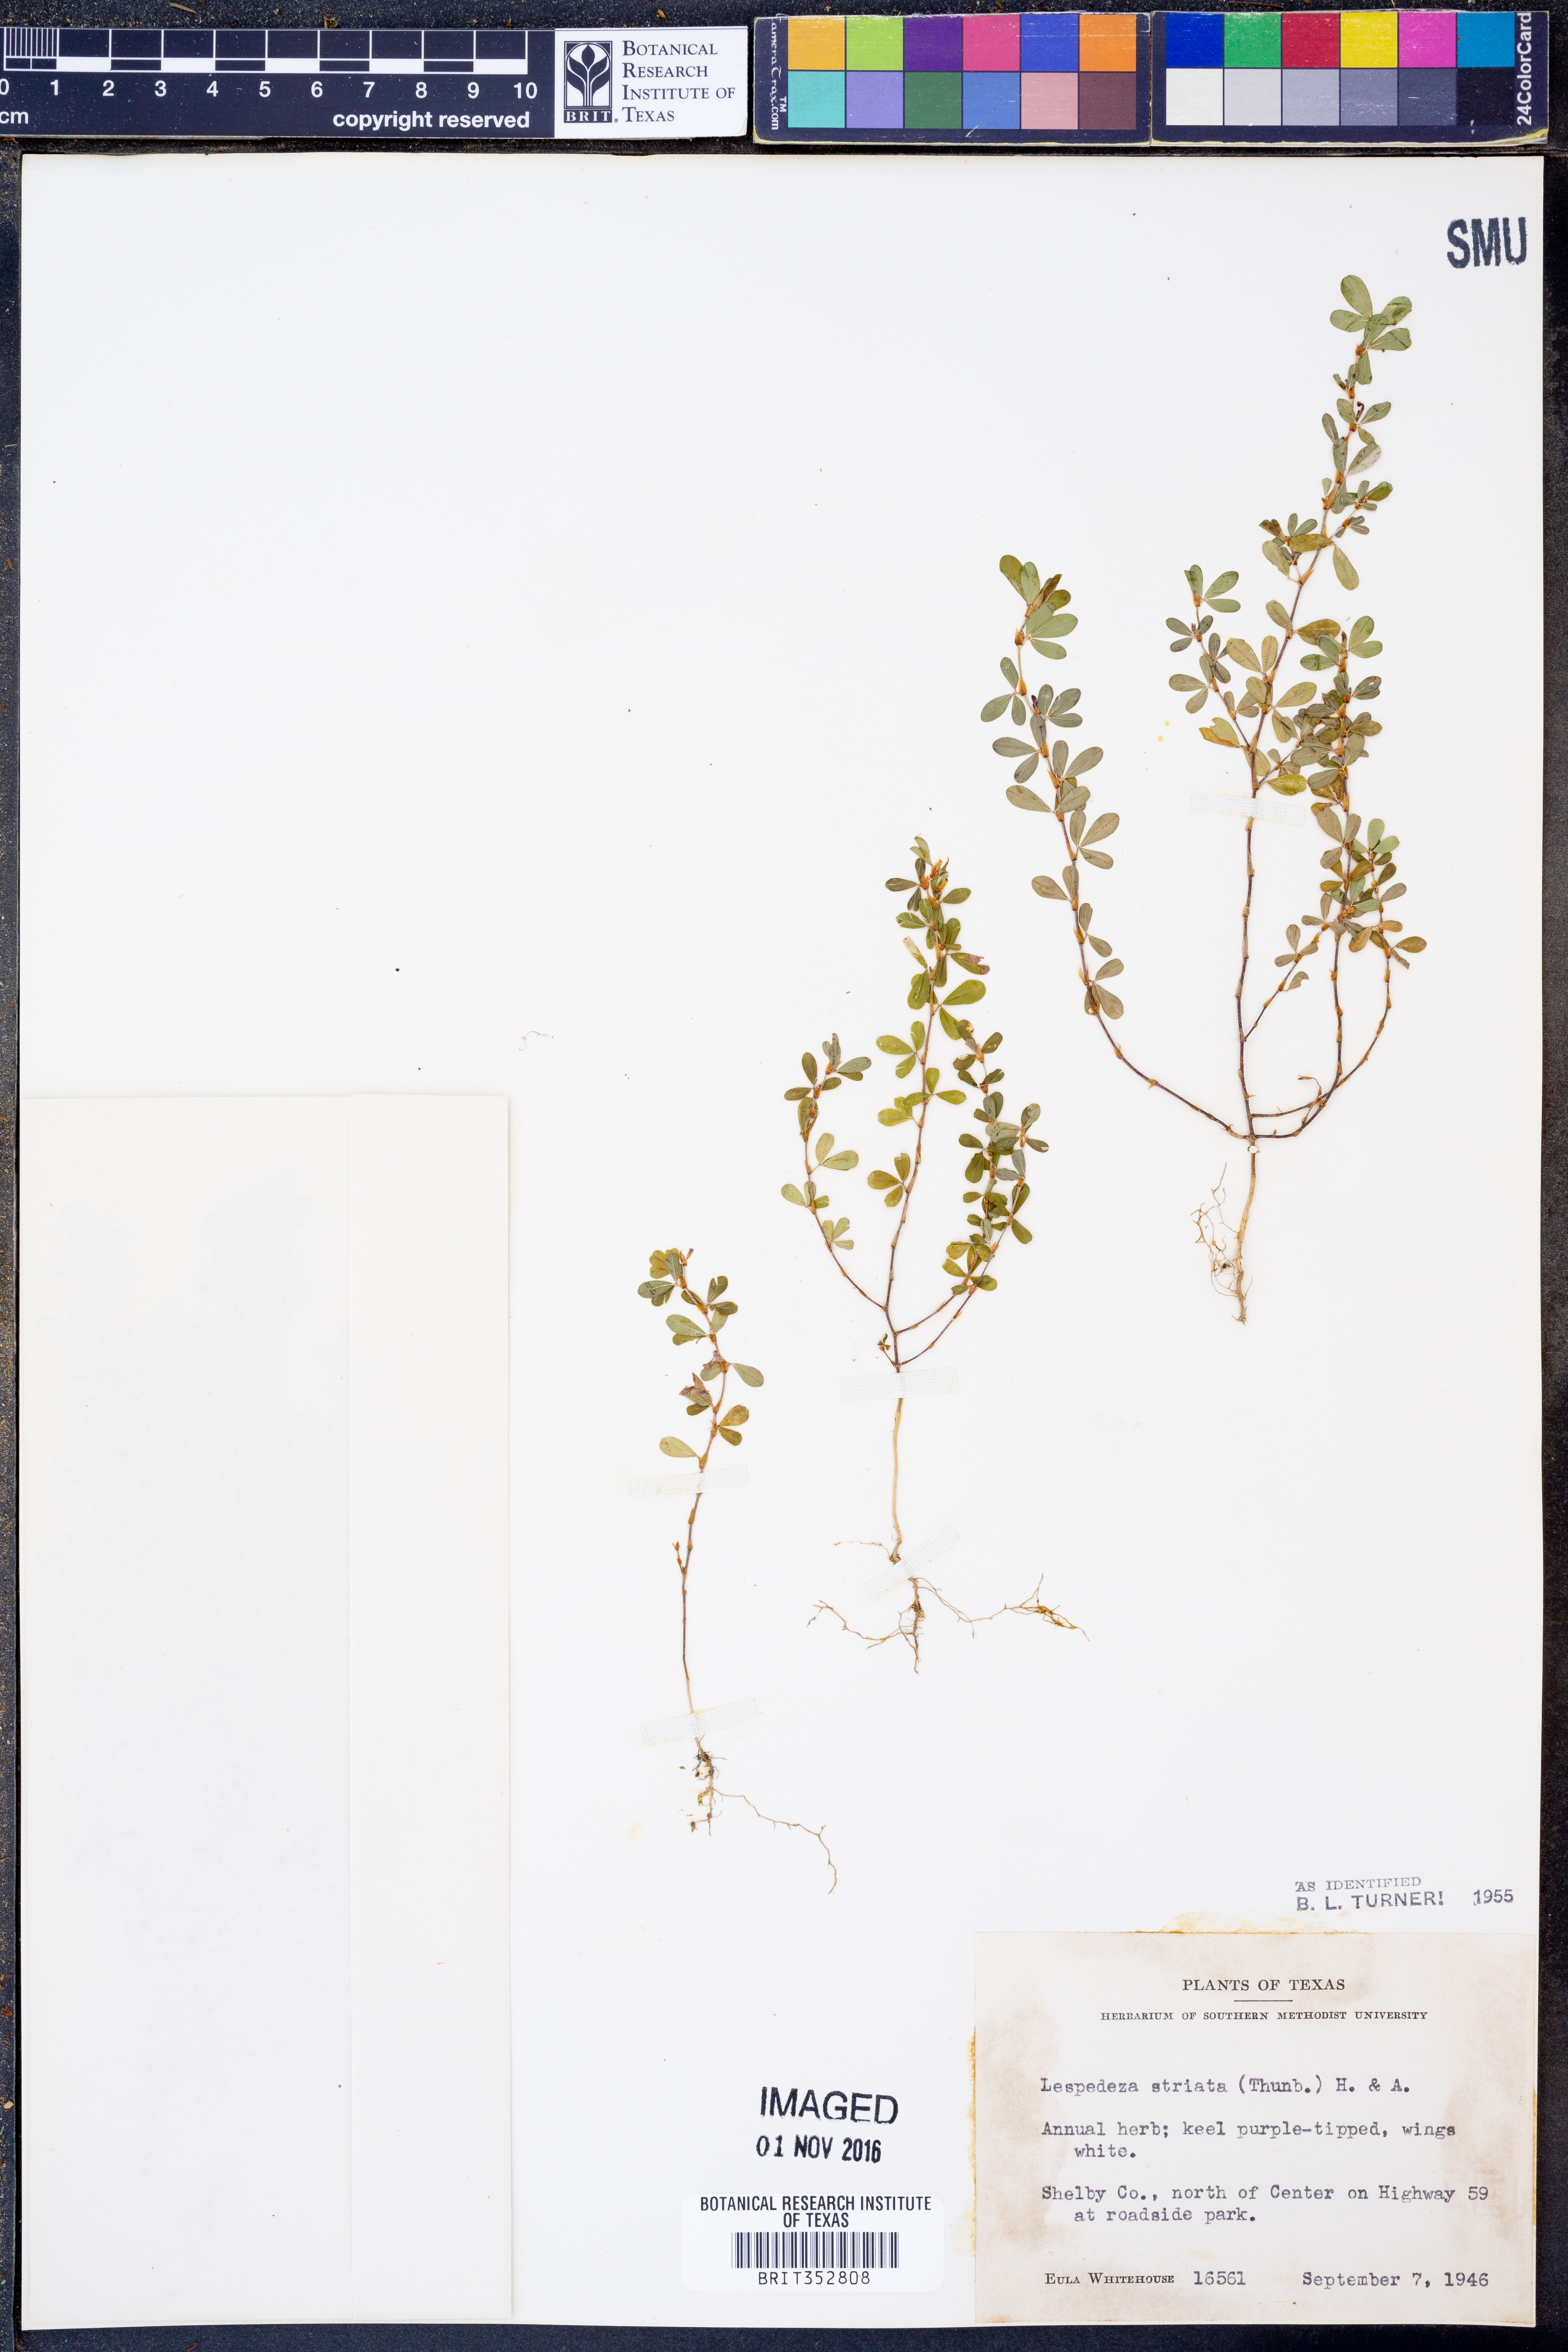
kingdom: Plantae
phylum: Tracheophyta
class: Magnoliopsida
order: Fabales
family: Fabaceae
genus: Kummerowia
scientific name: Kummerowia striata
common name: Japanese clover
